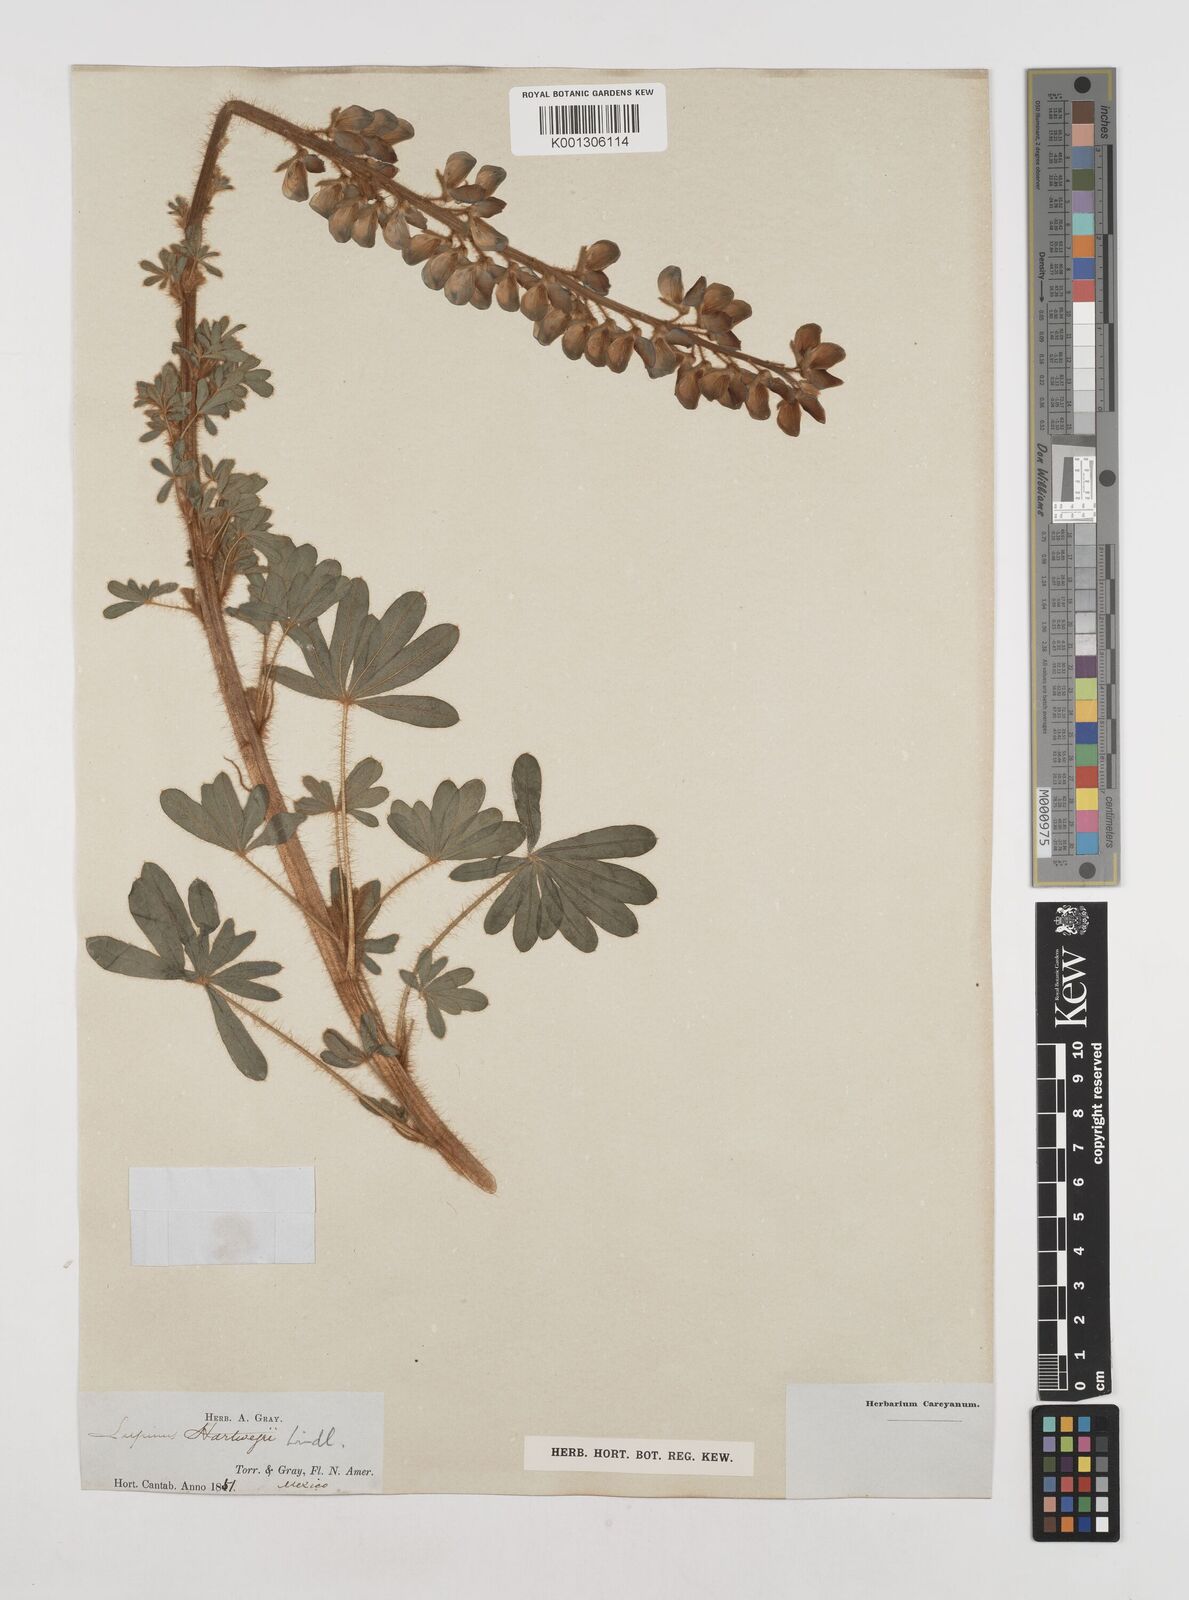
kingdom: Plantae
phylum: Tracheophyta
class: Magnoliopsida
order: Fabales
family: Fabaceae
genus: Lupinus
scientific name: Lupinus ehrenbergii
